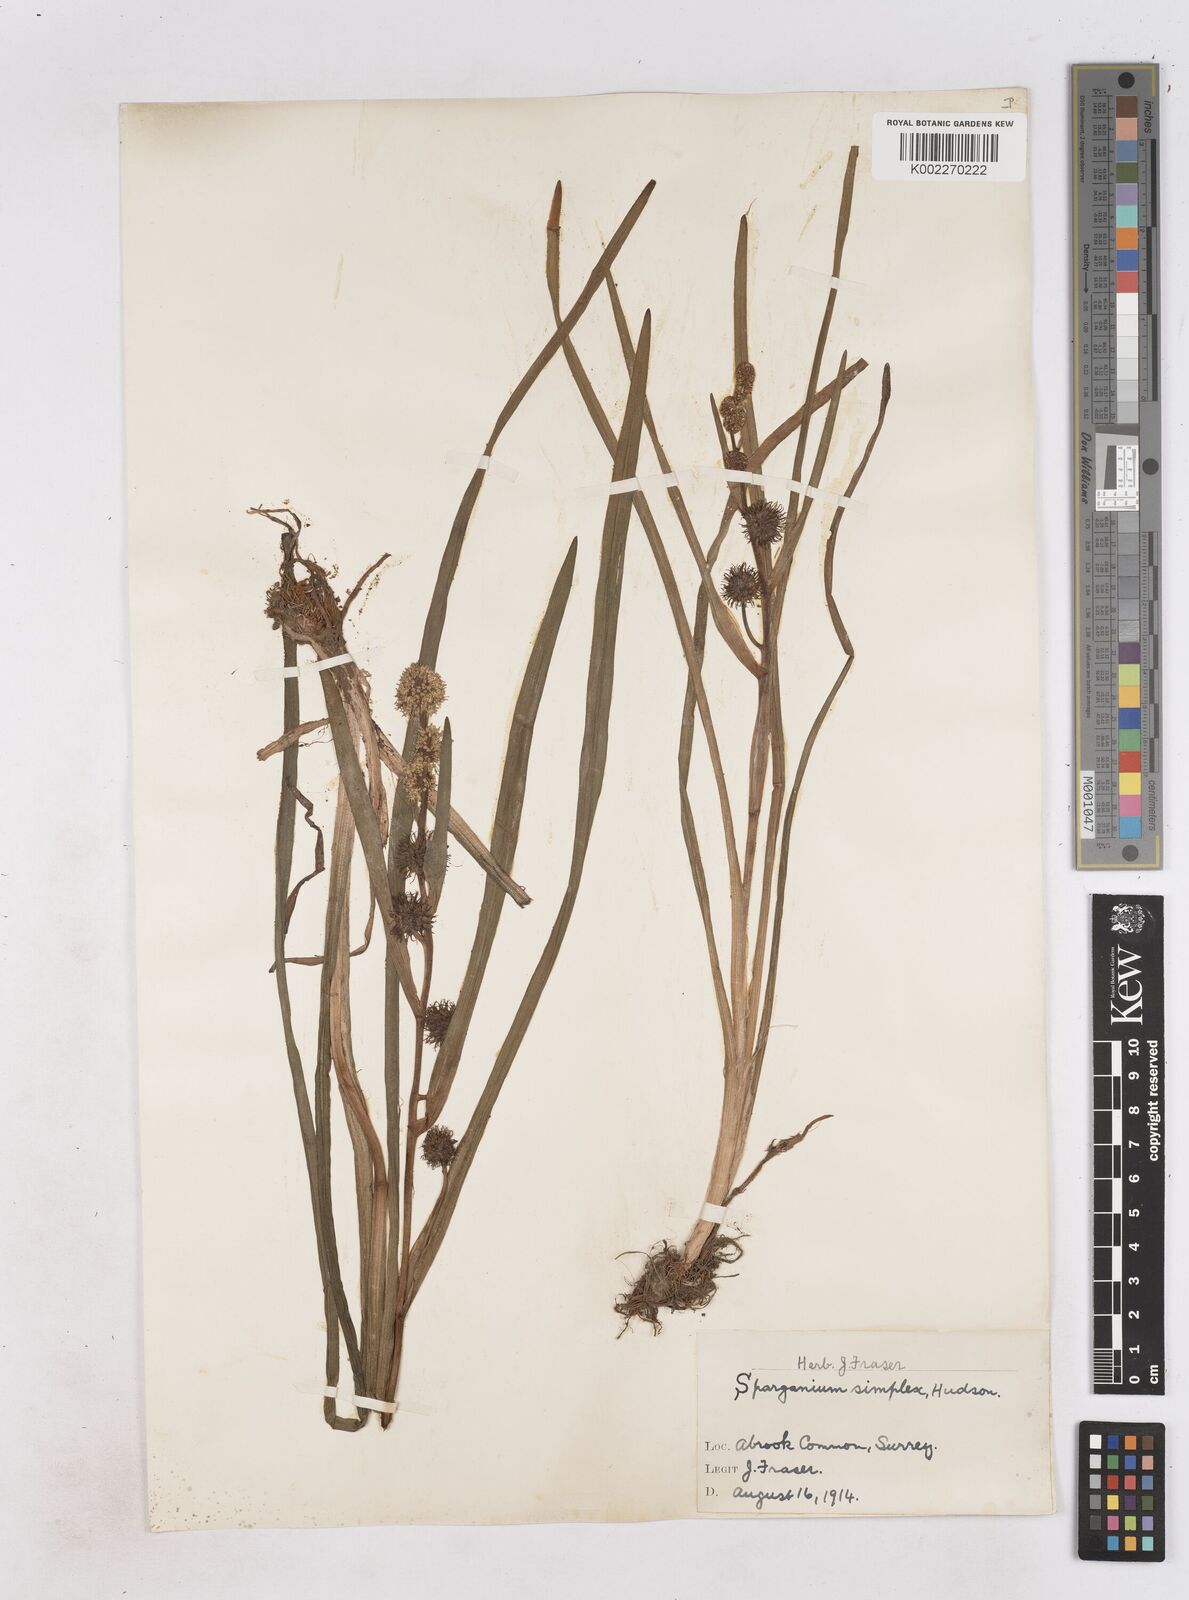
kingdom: Plantae
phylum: Tracheophyta
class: Liliopsida
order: Poales
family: Typhaceae
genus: Sparganium
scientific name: Sparganium emersum
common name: Unbranched bur-reed
